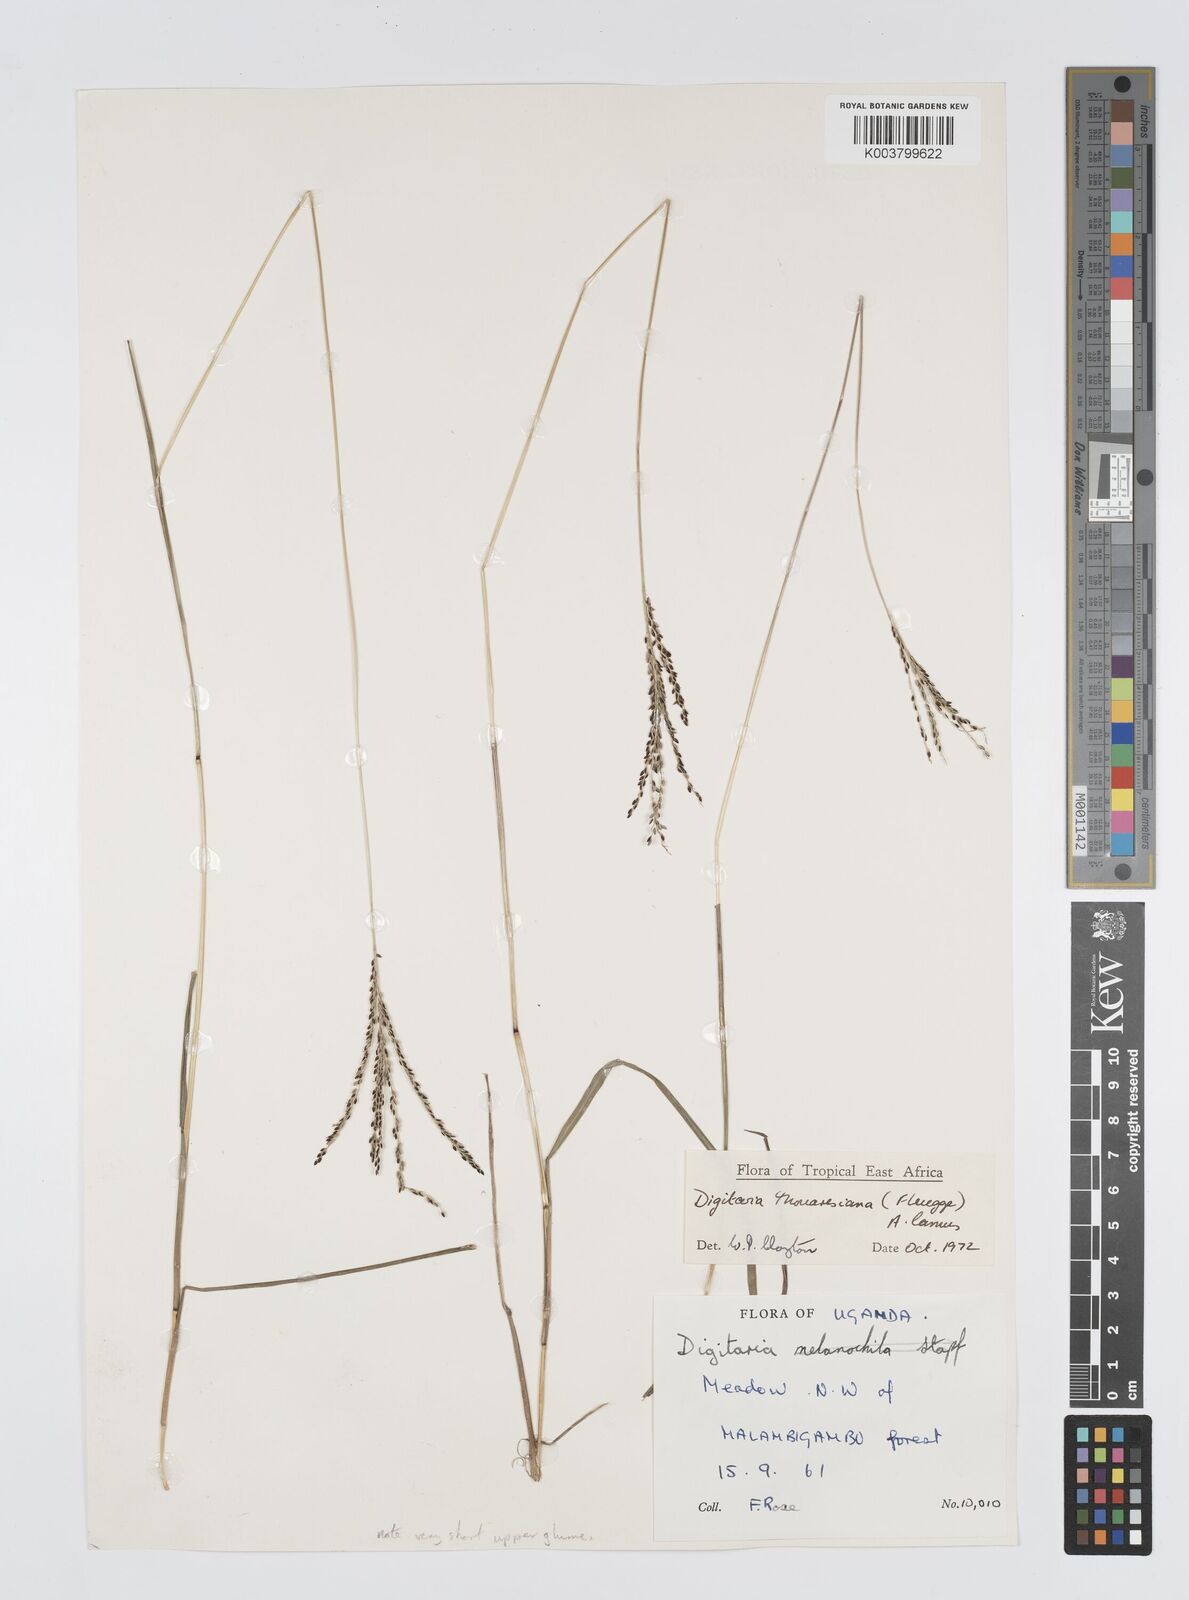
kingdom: Plantae
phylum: Tracheophyta
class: Liliopsida
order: Poales
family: Poaceae
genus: Digitaria
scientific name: Digitaria thouarsiana
